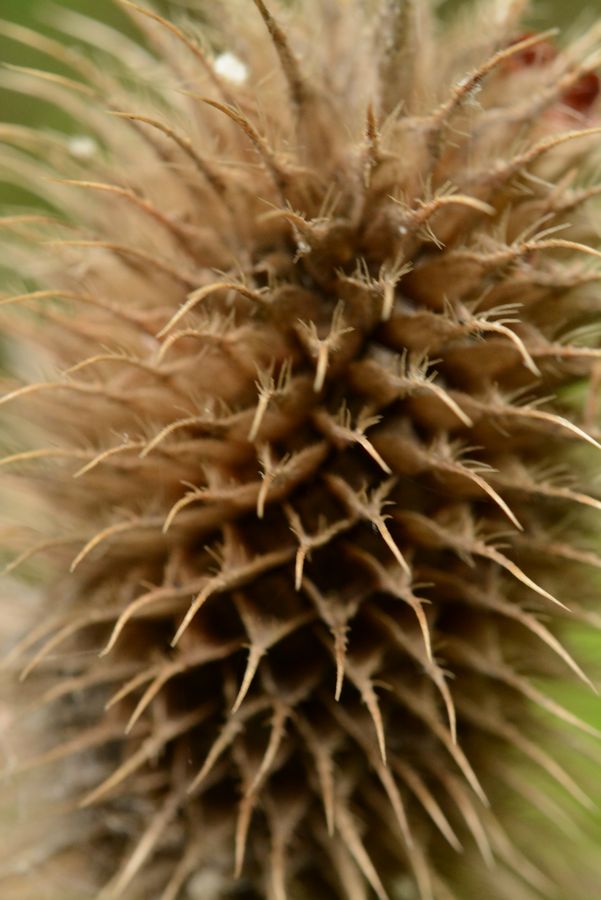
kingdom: Plantae
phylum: Tracheophyta
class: Magnoliopsida
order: Dipsacales
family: Caprifoliaceae
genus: Dipsacus
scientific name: Dipsacus laciniatus
